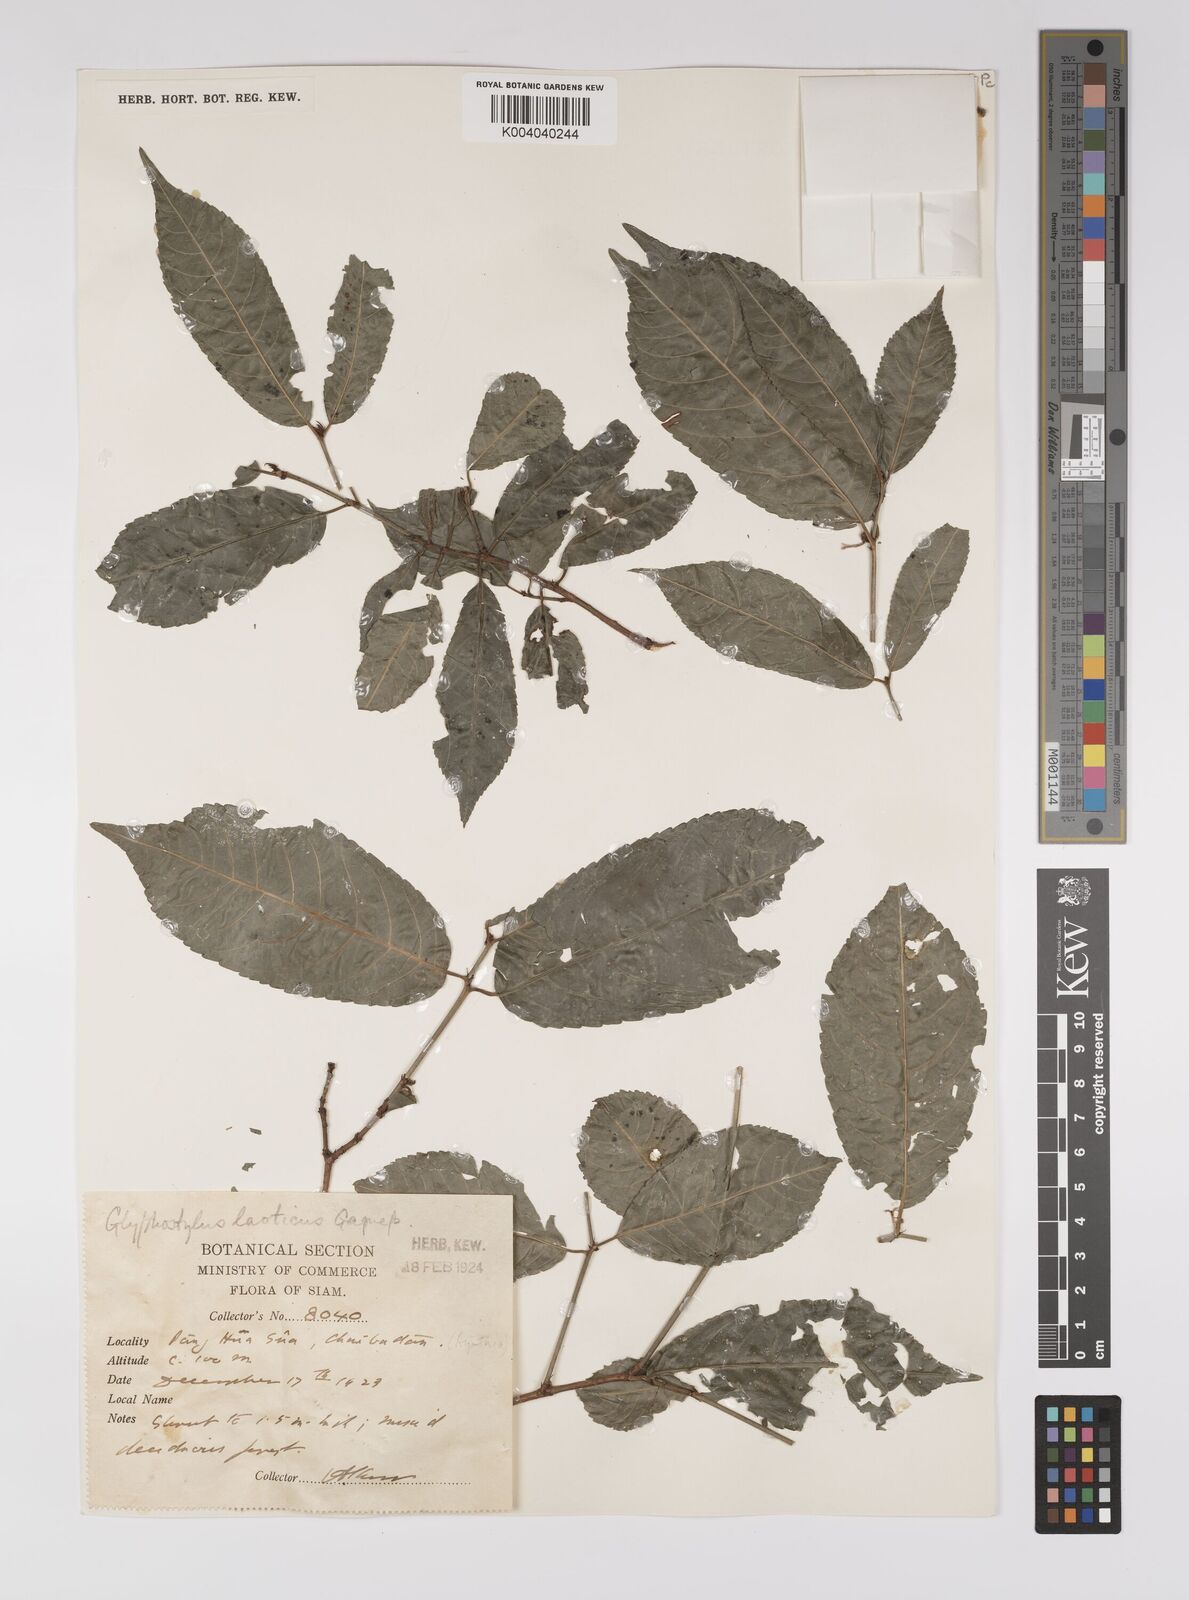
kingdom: Plantae
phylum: Tracheophyta
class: Magnoliopsida
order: Malpighiales
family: Euphorbiaceae
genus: Excoecaria
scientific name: Excoecaria laotica
